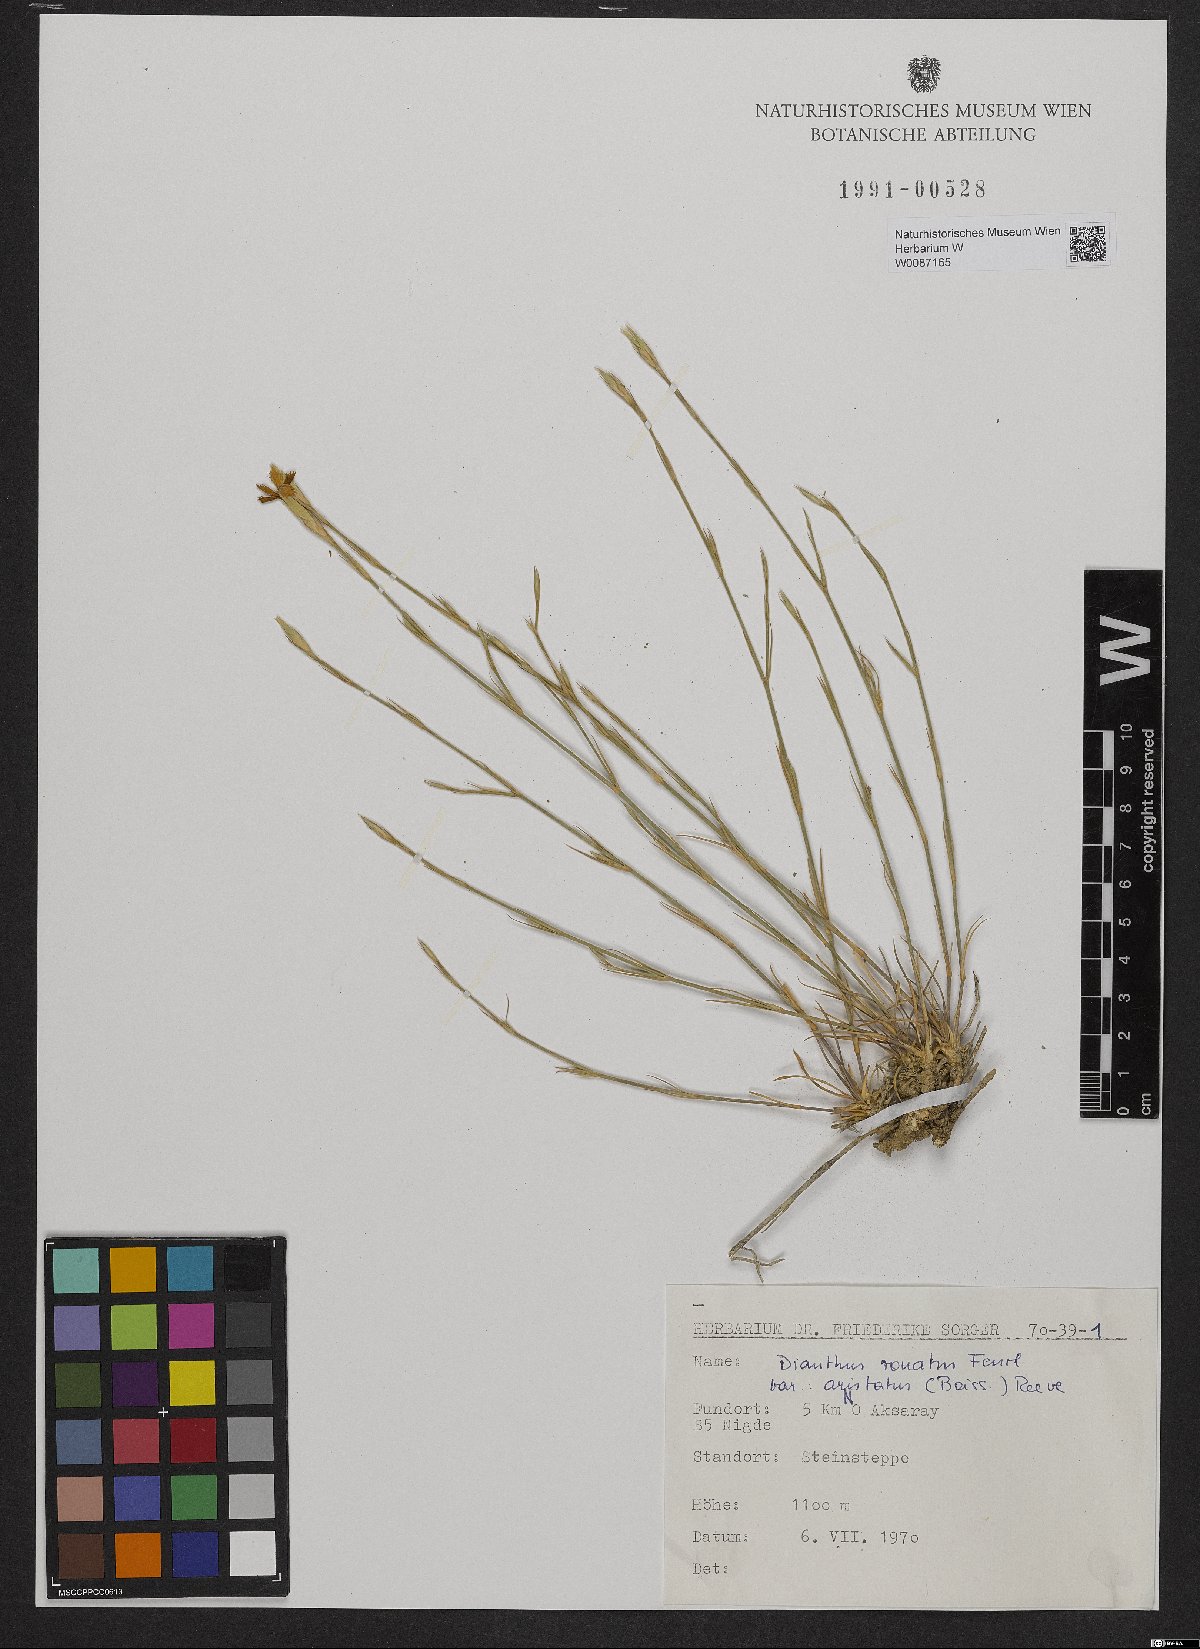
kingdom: Plantae
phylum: Tracheophyta
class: Magnoliopsida
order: Caryophyllales
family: Caryophyllaceae
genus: Dianthus
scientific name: Dianthus aristatus
